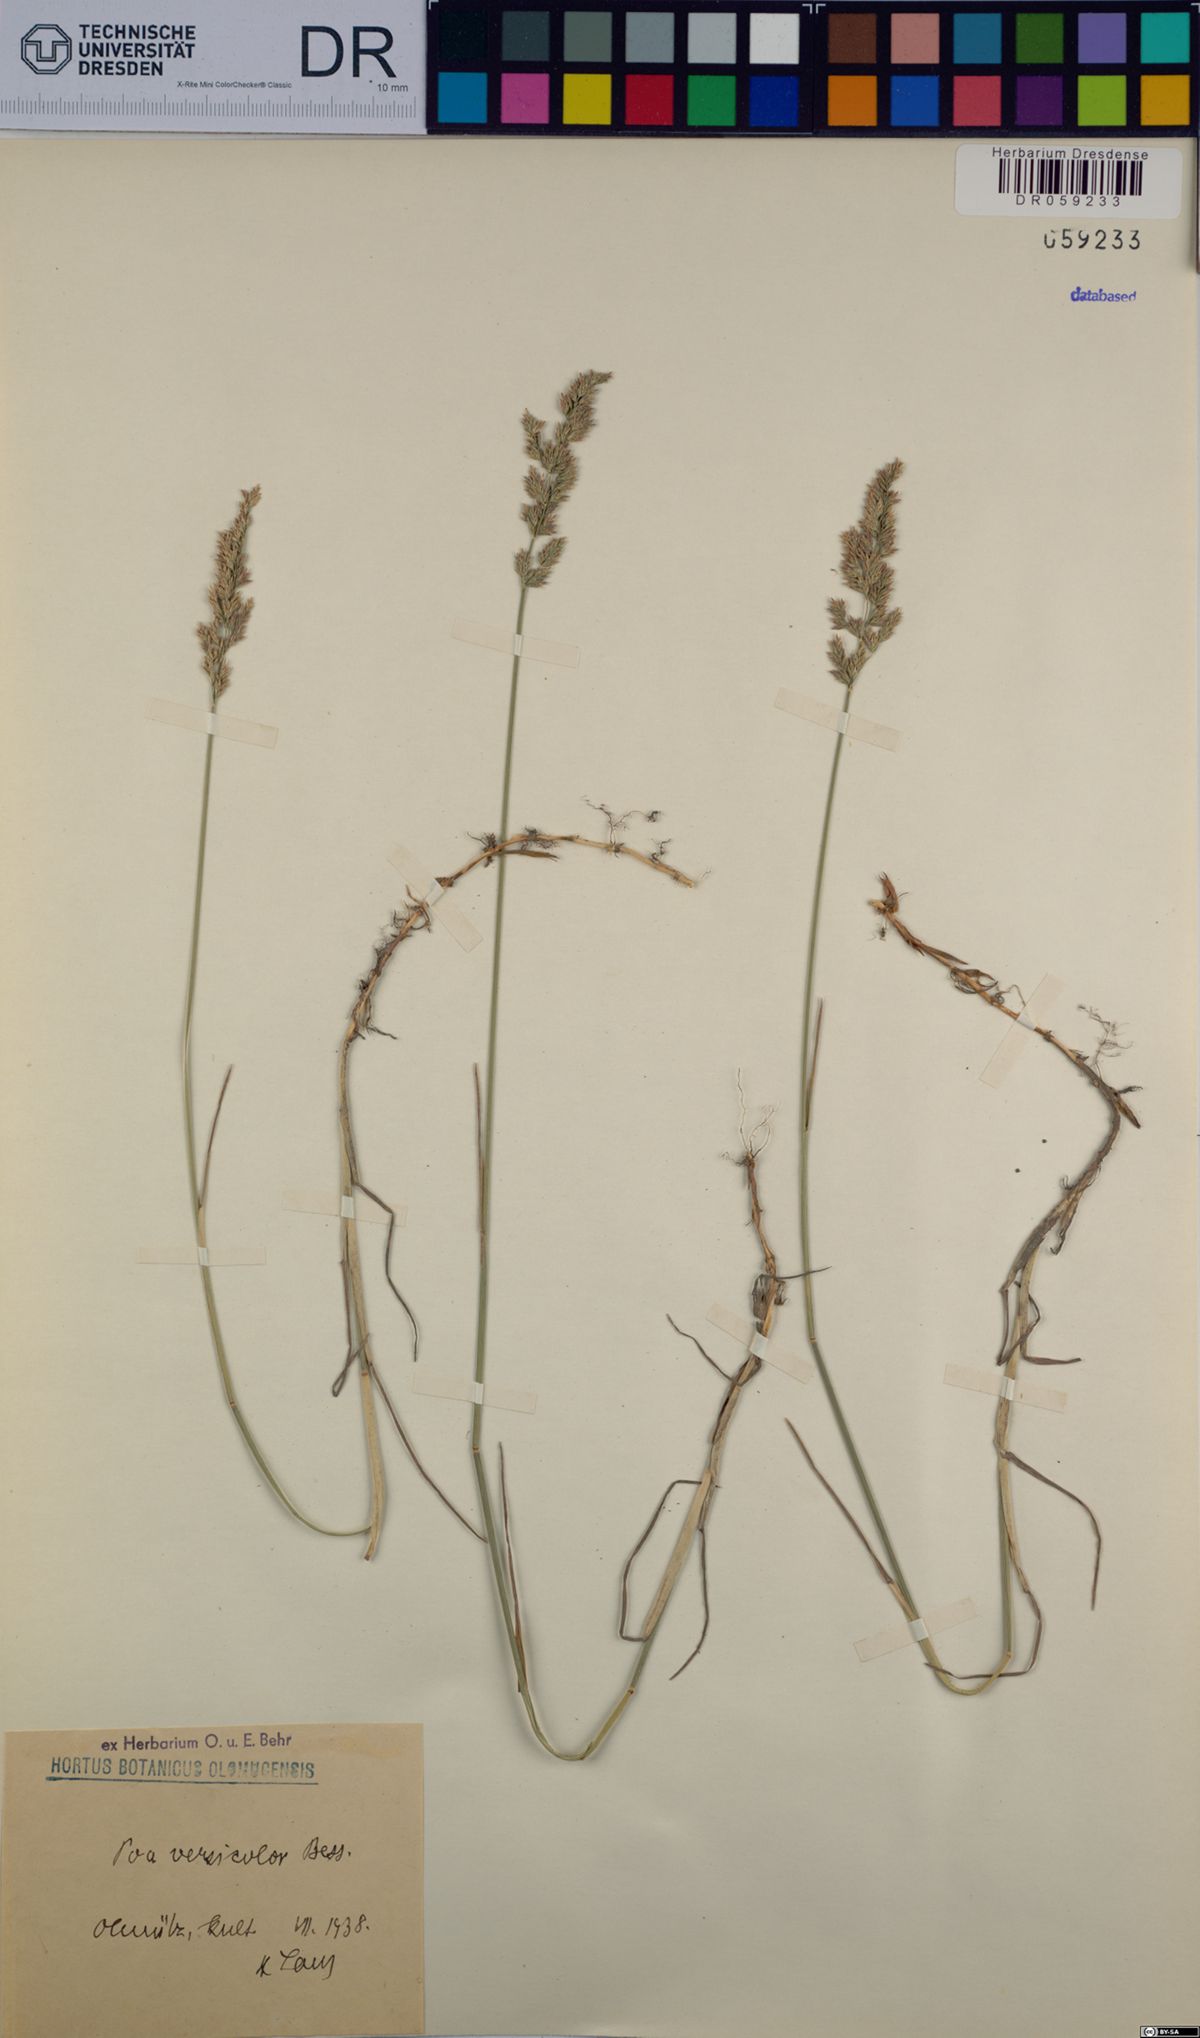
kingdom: Plantae
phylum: Tracheophyta
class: Liliopsida
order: Poales
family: Poaceae
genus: Poa
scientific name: Poa versicolor
